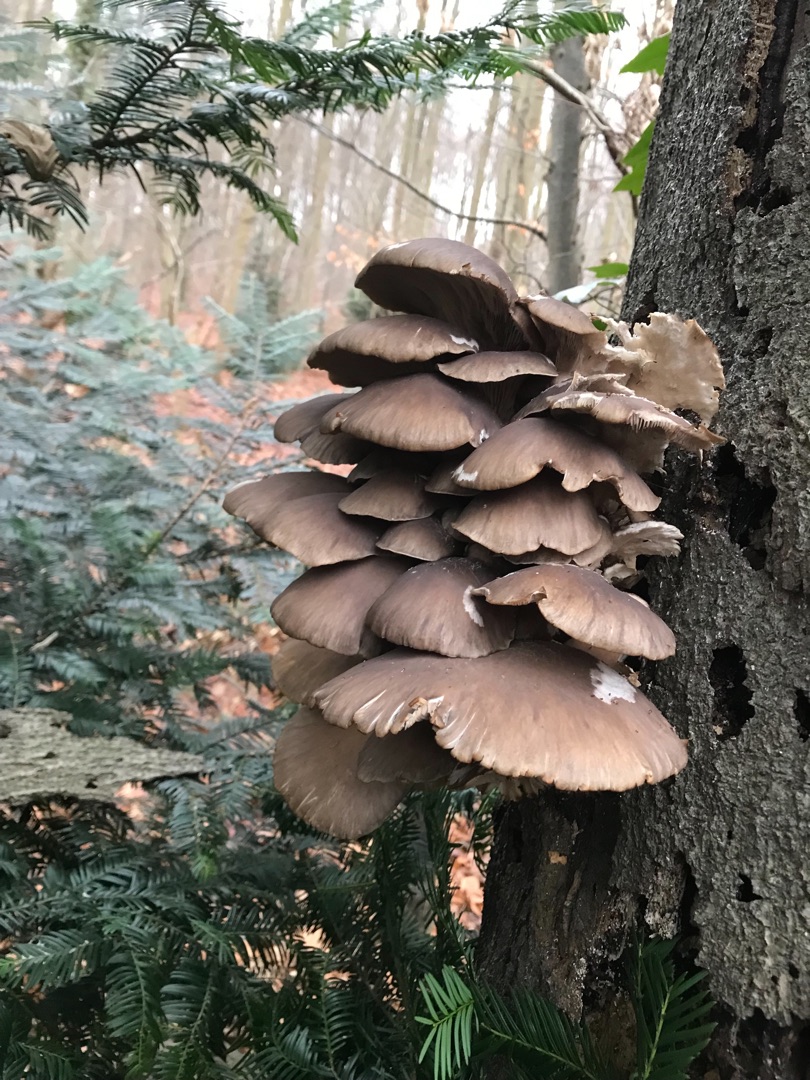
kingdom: Fungi
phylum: Basidiomycota
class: Agaricomycetes
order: Agaricales
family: Pleurotaceae
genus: Pleurotus
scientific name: Pleurotus ostreatus
